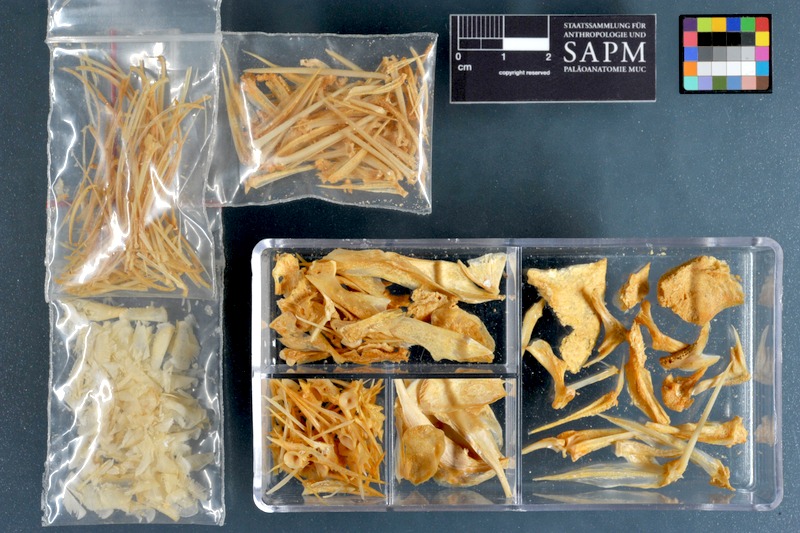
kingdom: Animalia
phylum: Chordata
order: Perciformes
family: Cichlidae
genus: Pelmatolapia
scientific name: Pelmatolapia mariae
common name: Spotted tilapia
